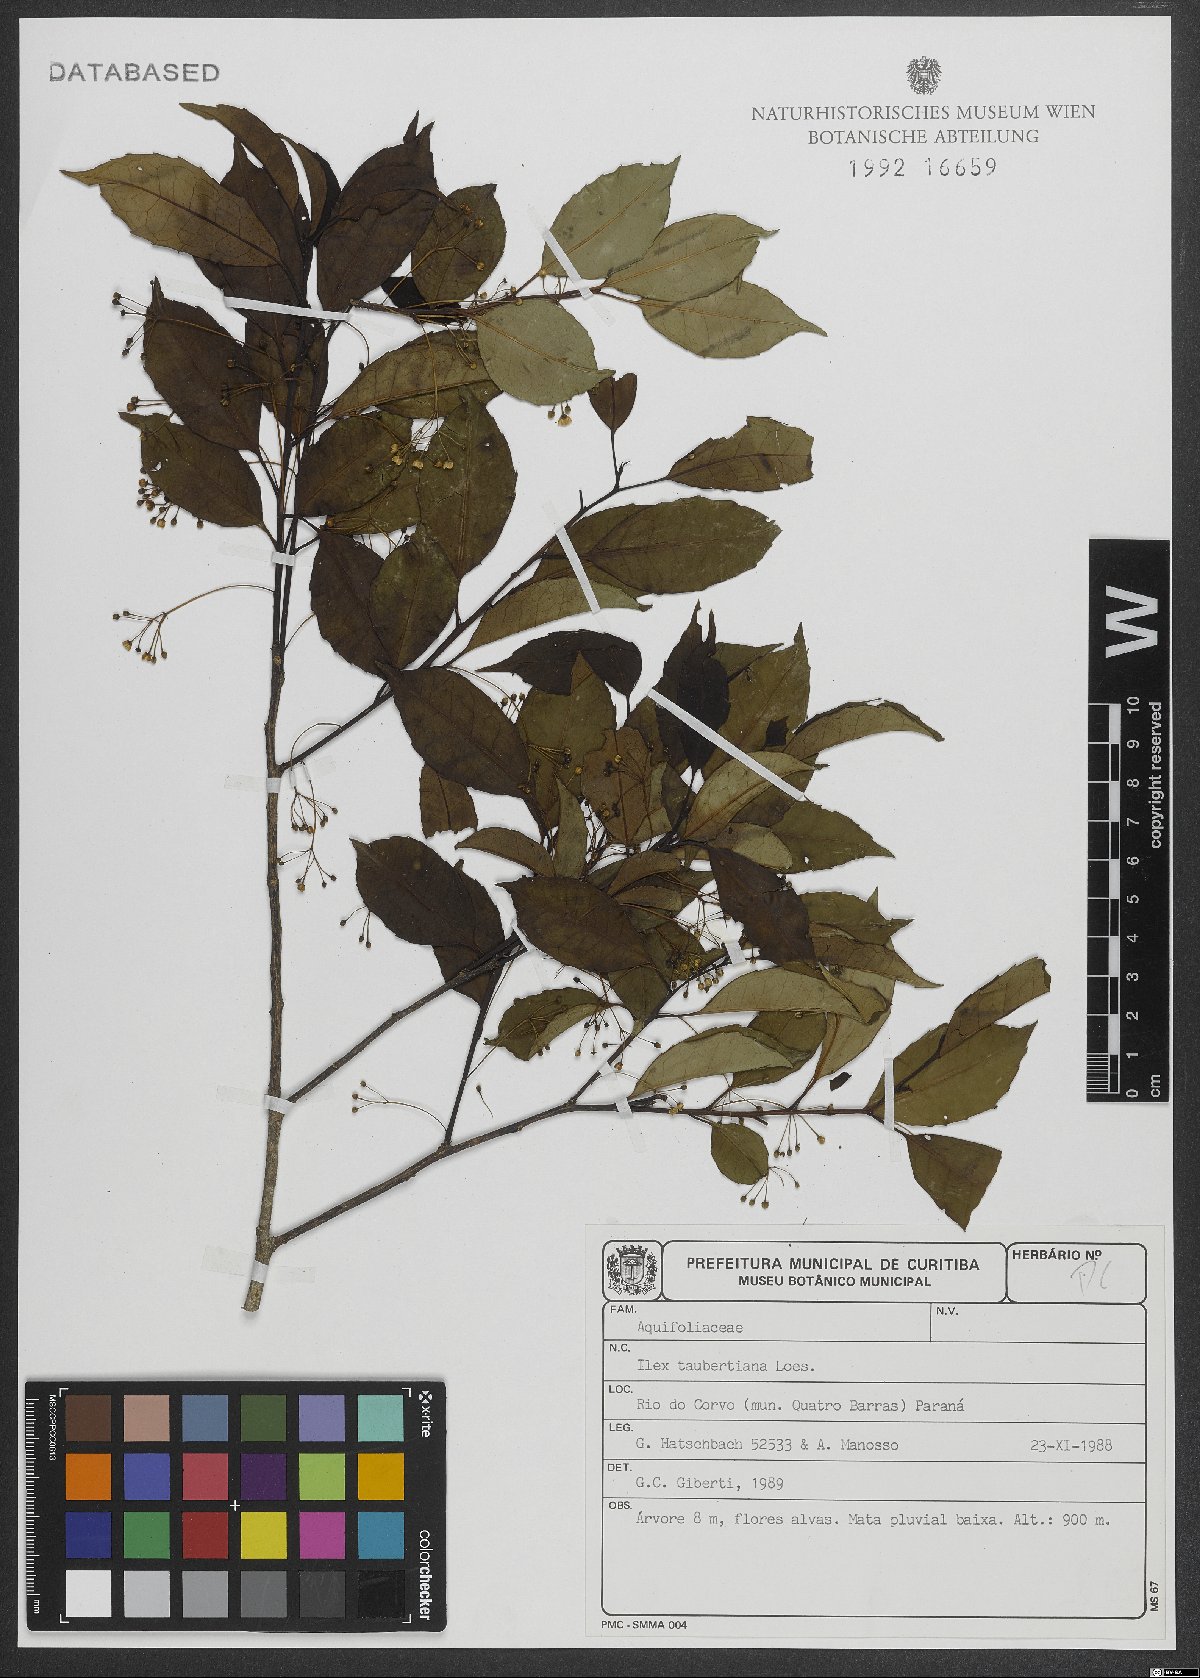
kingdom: Plantae
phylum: Tracheophyta
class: Magnoliopsida
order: Aquifoliales
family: Aquifoliaceae
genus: Ilex
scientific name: Ilex taubertiana
